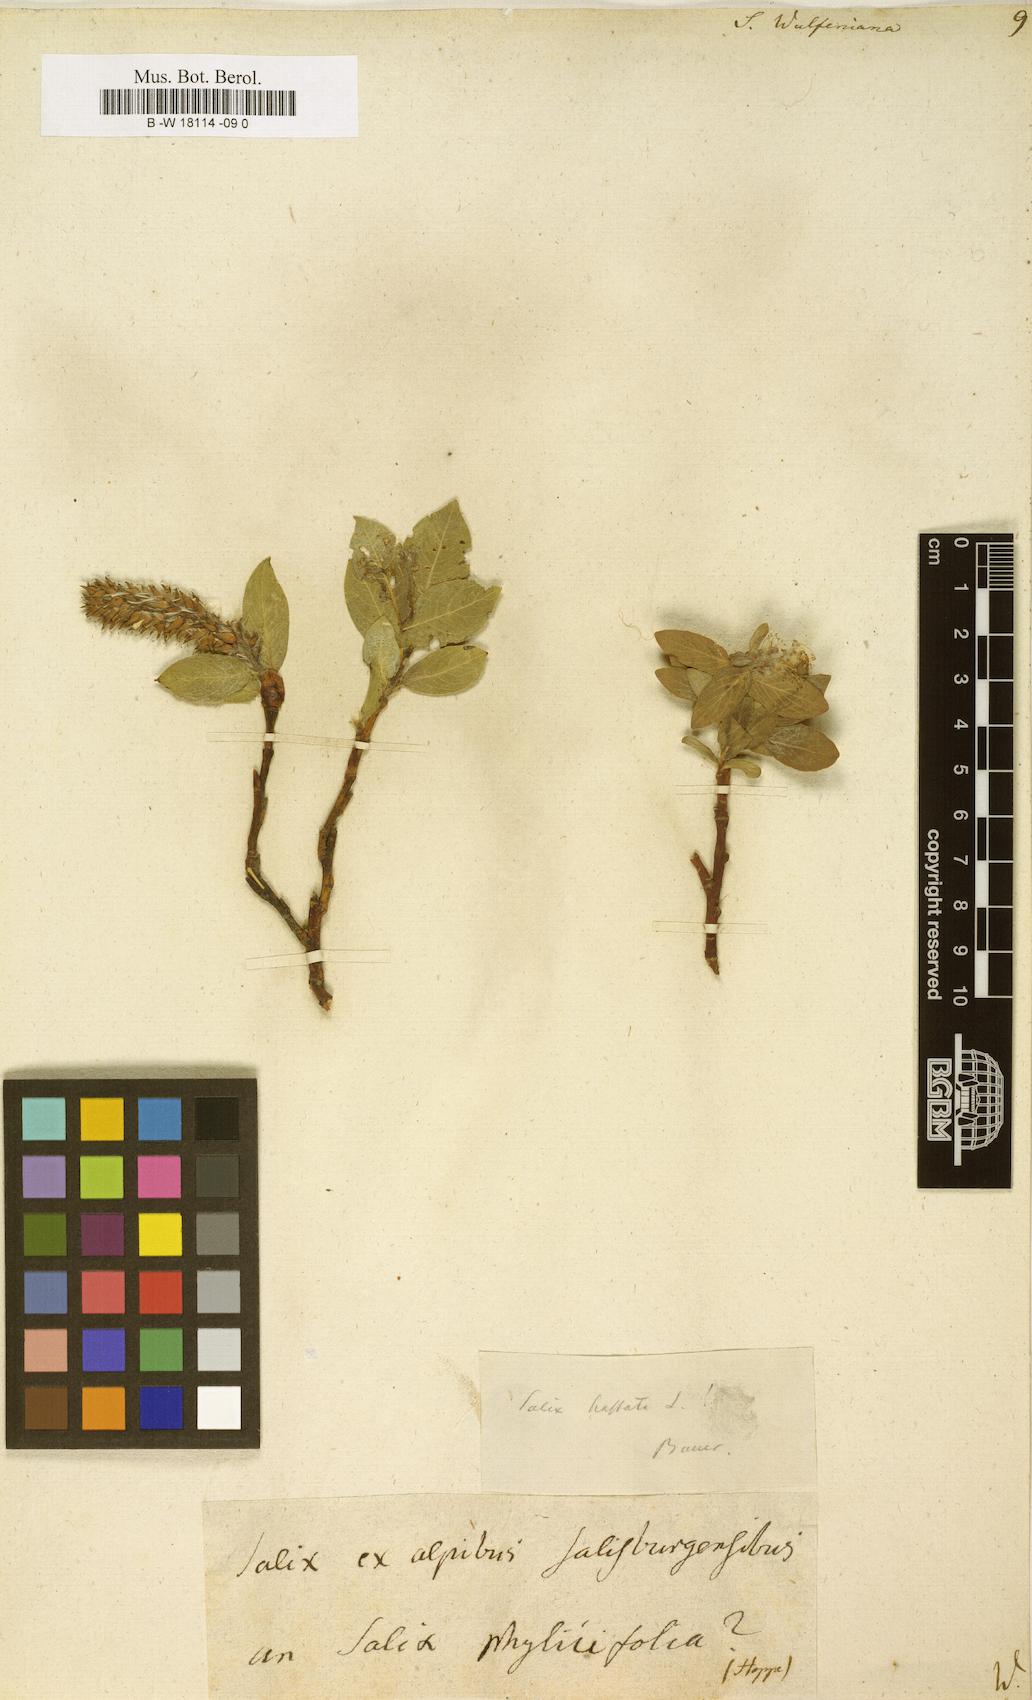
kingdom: Plantae
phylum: Tracheophyta
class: Magnoliopsida
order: Malpighiales
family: Salicaceae
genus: Salix
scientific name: Salix
